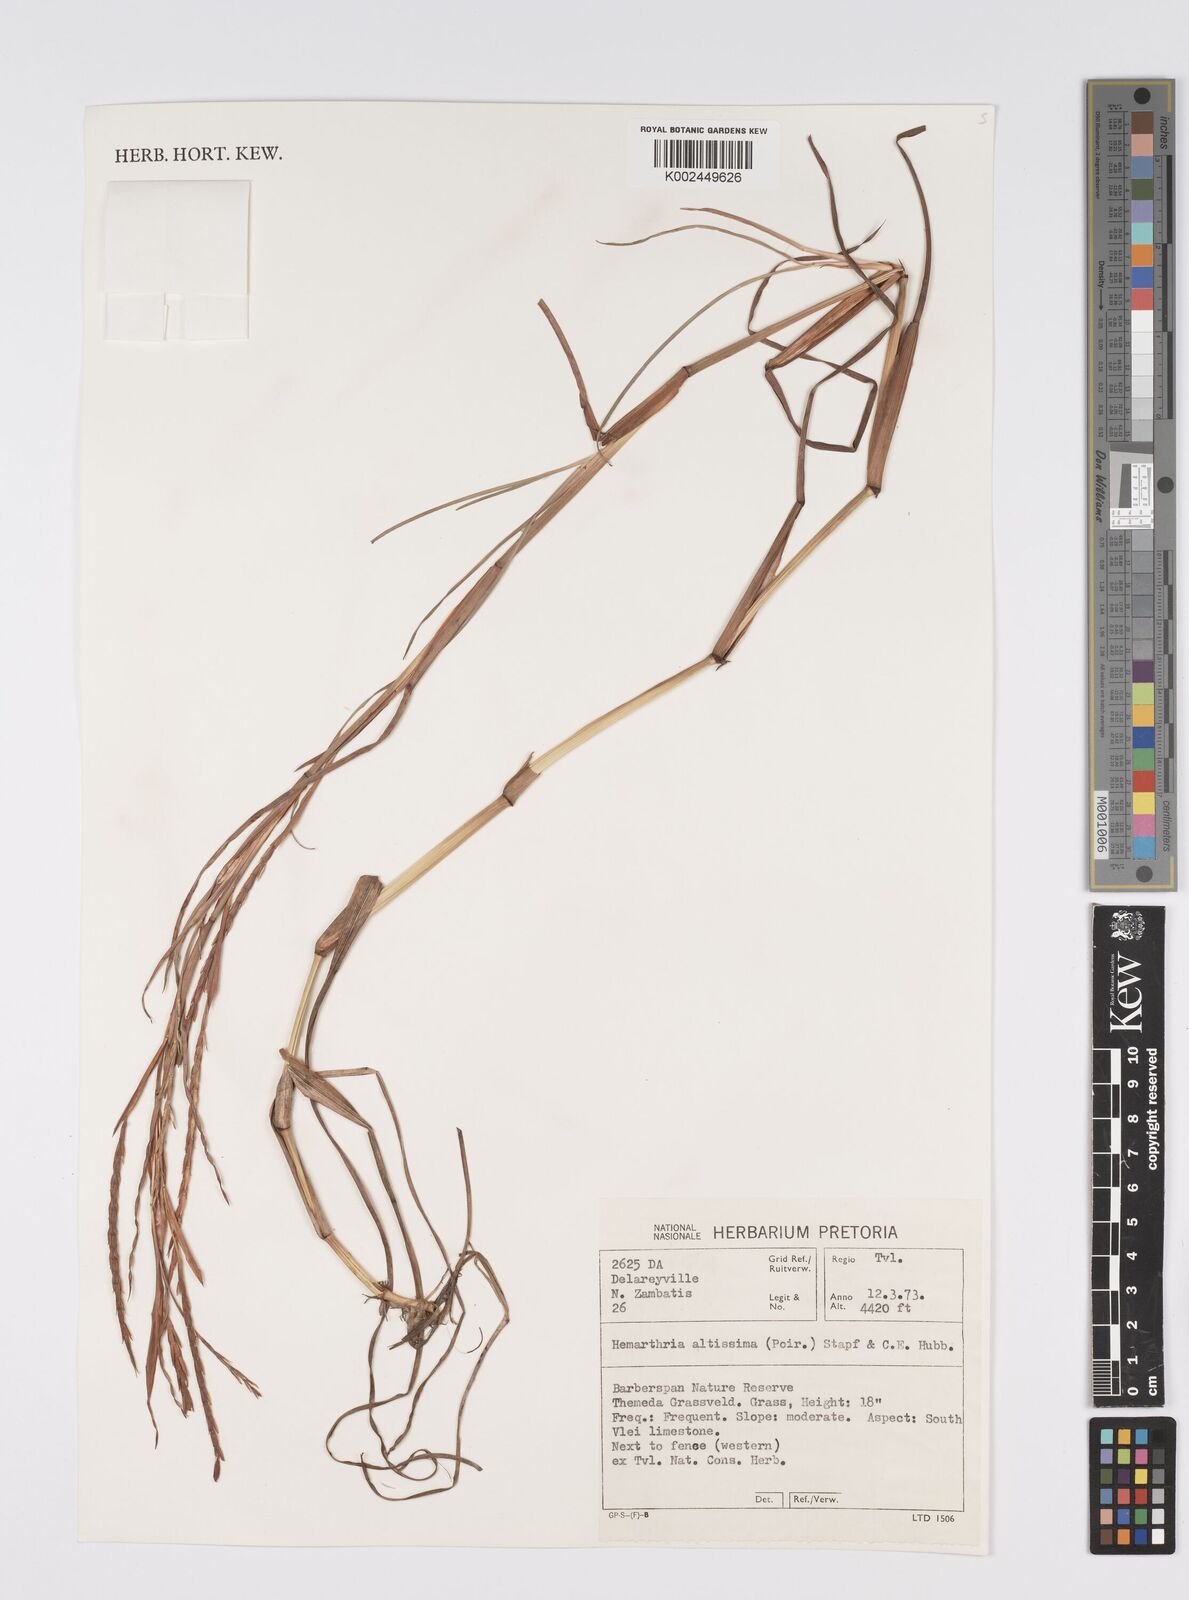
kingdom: Plantae
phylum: Tracheophyta
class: Liliopsida
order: Poales
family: Poaceae
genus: Hemarthria
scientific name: Hemarthria altissima
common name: African jointgrass
